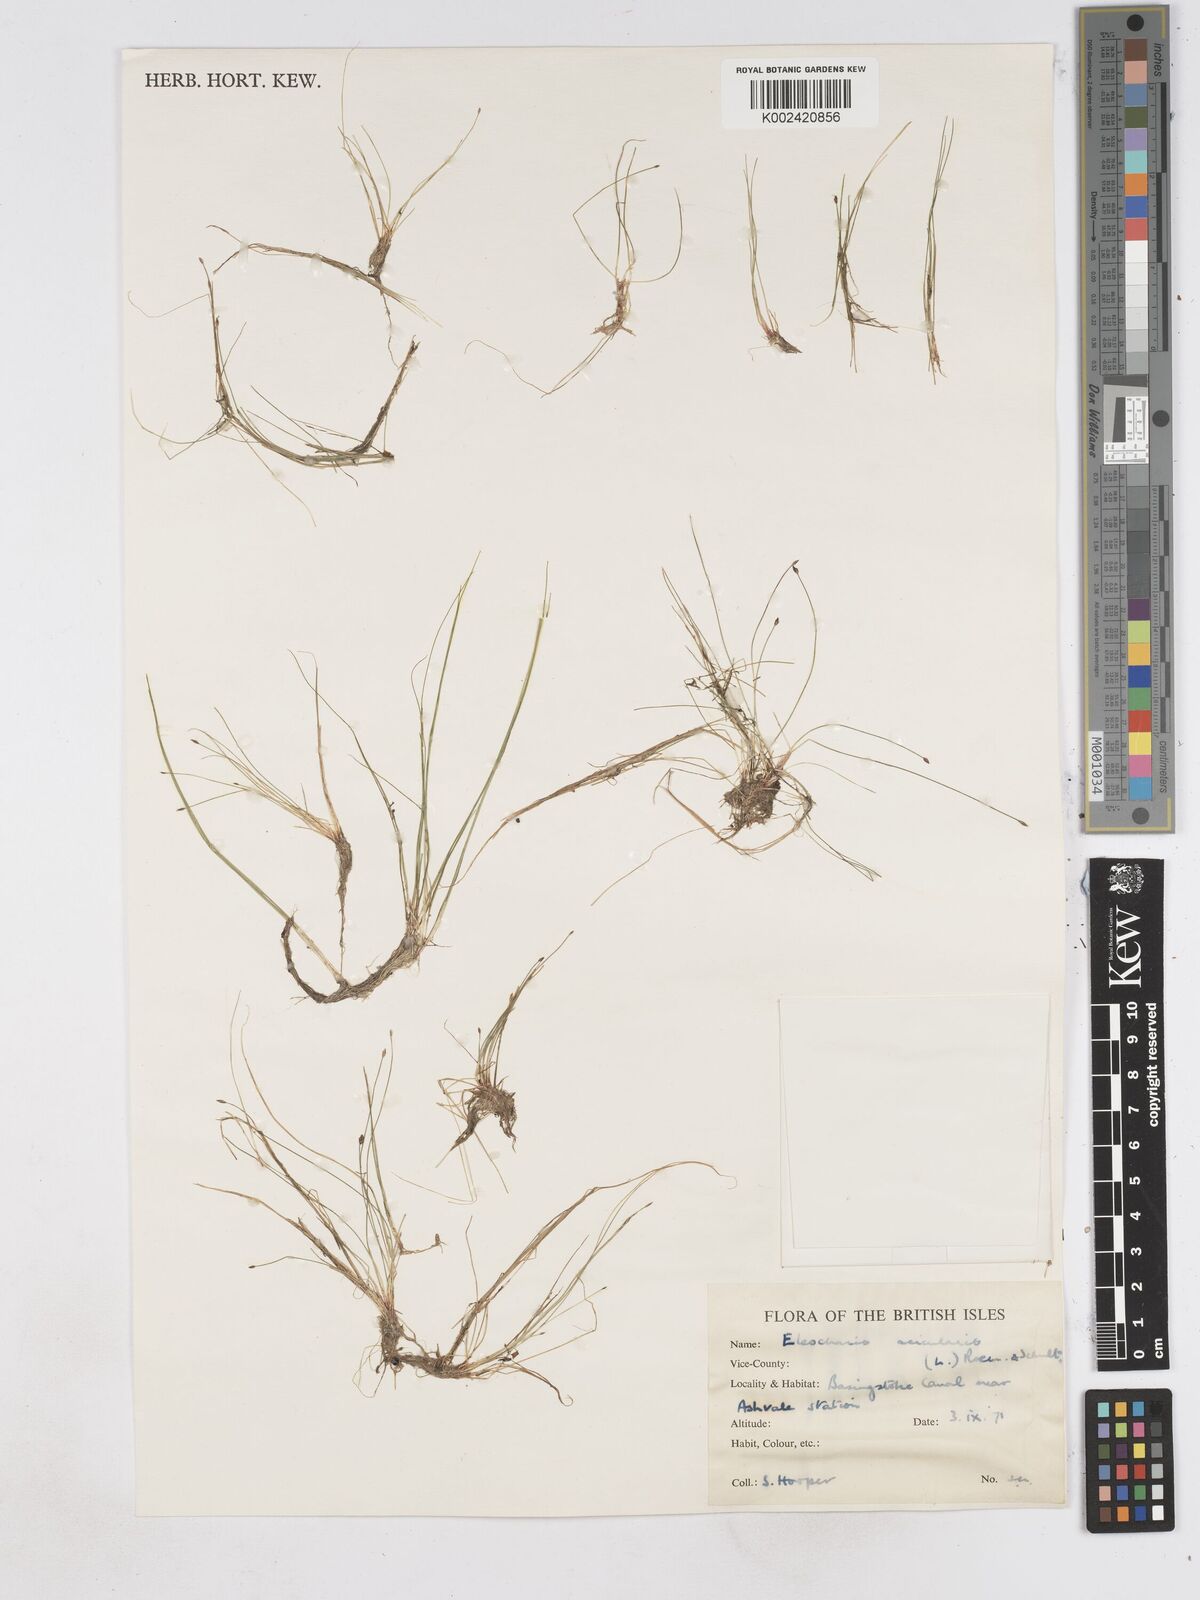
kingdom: Plantae
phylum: Tracheophyta
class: Liliopsida
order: Poales
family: Cyperaceae
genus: Eleocharis
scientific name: Eleocharis acicularis
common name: Needle spike-rush
